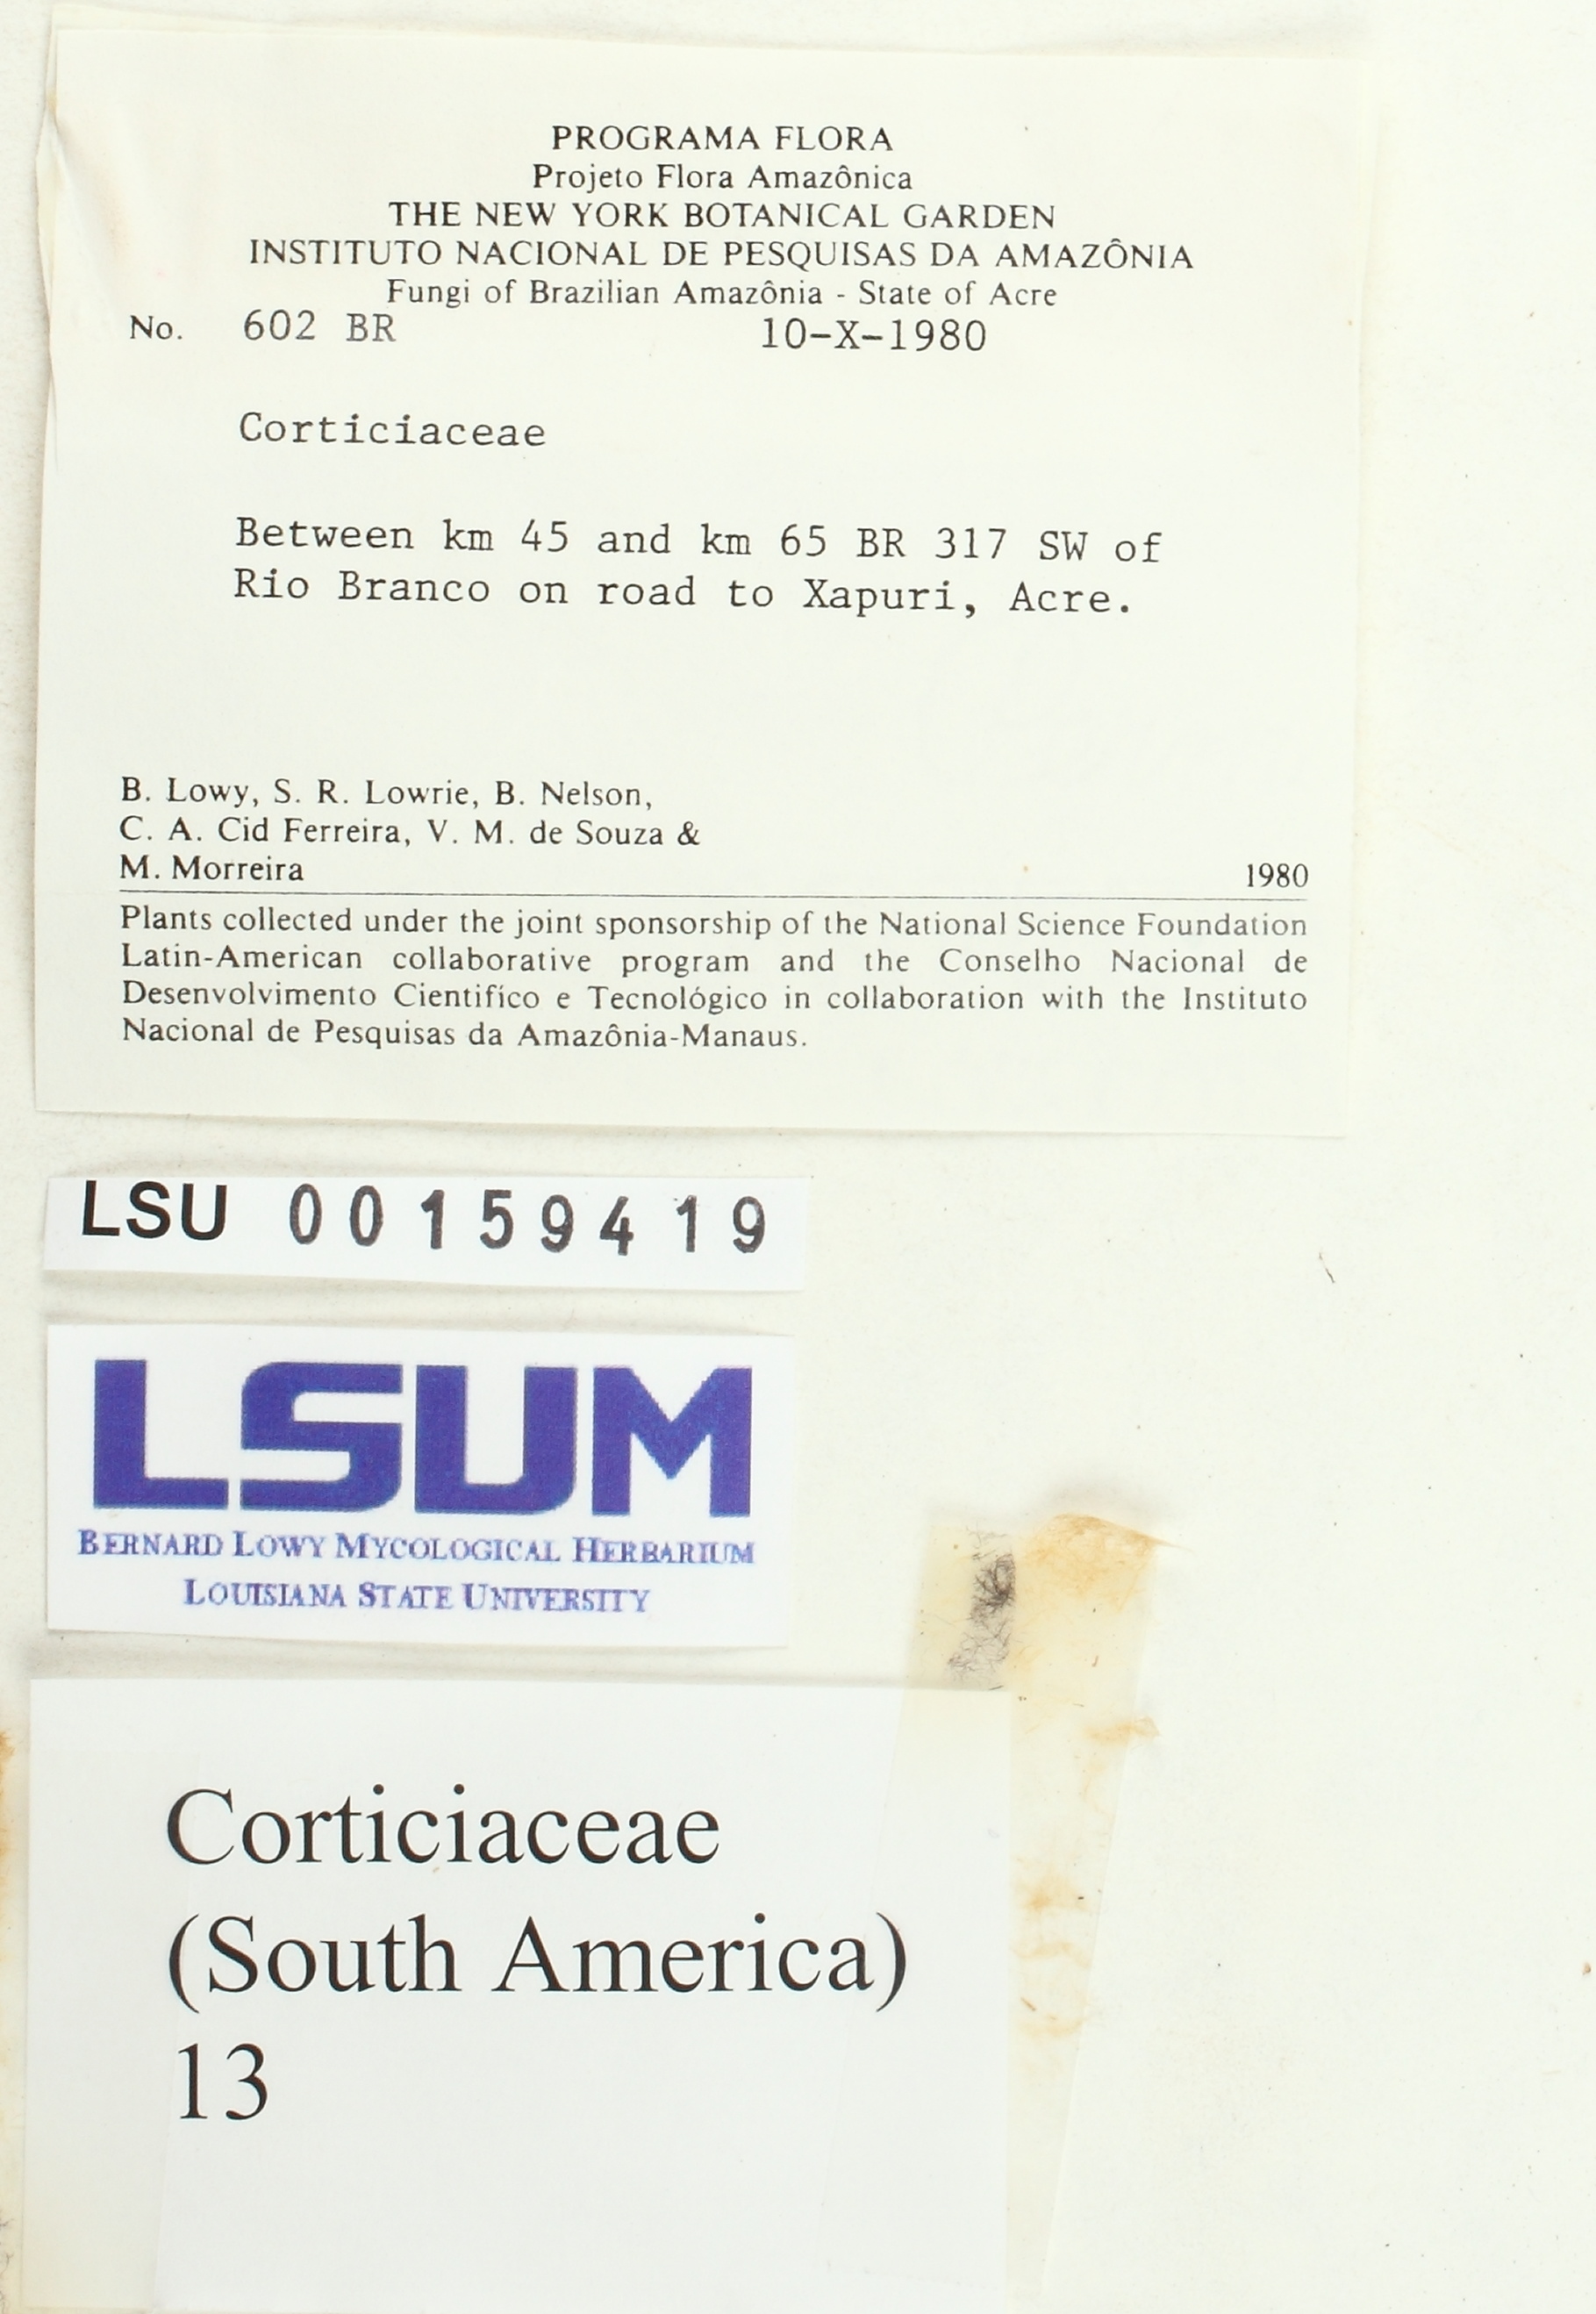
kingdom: Fungi
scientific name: Fungi
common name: Fungi
